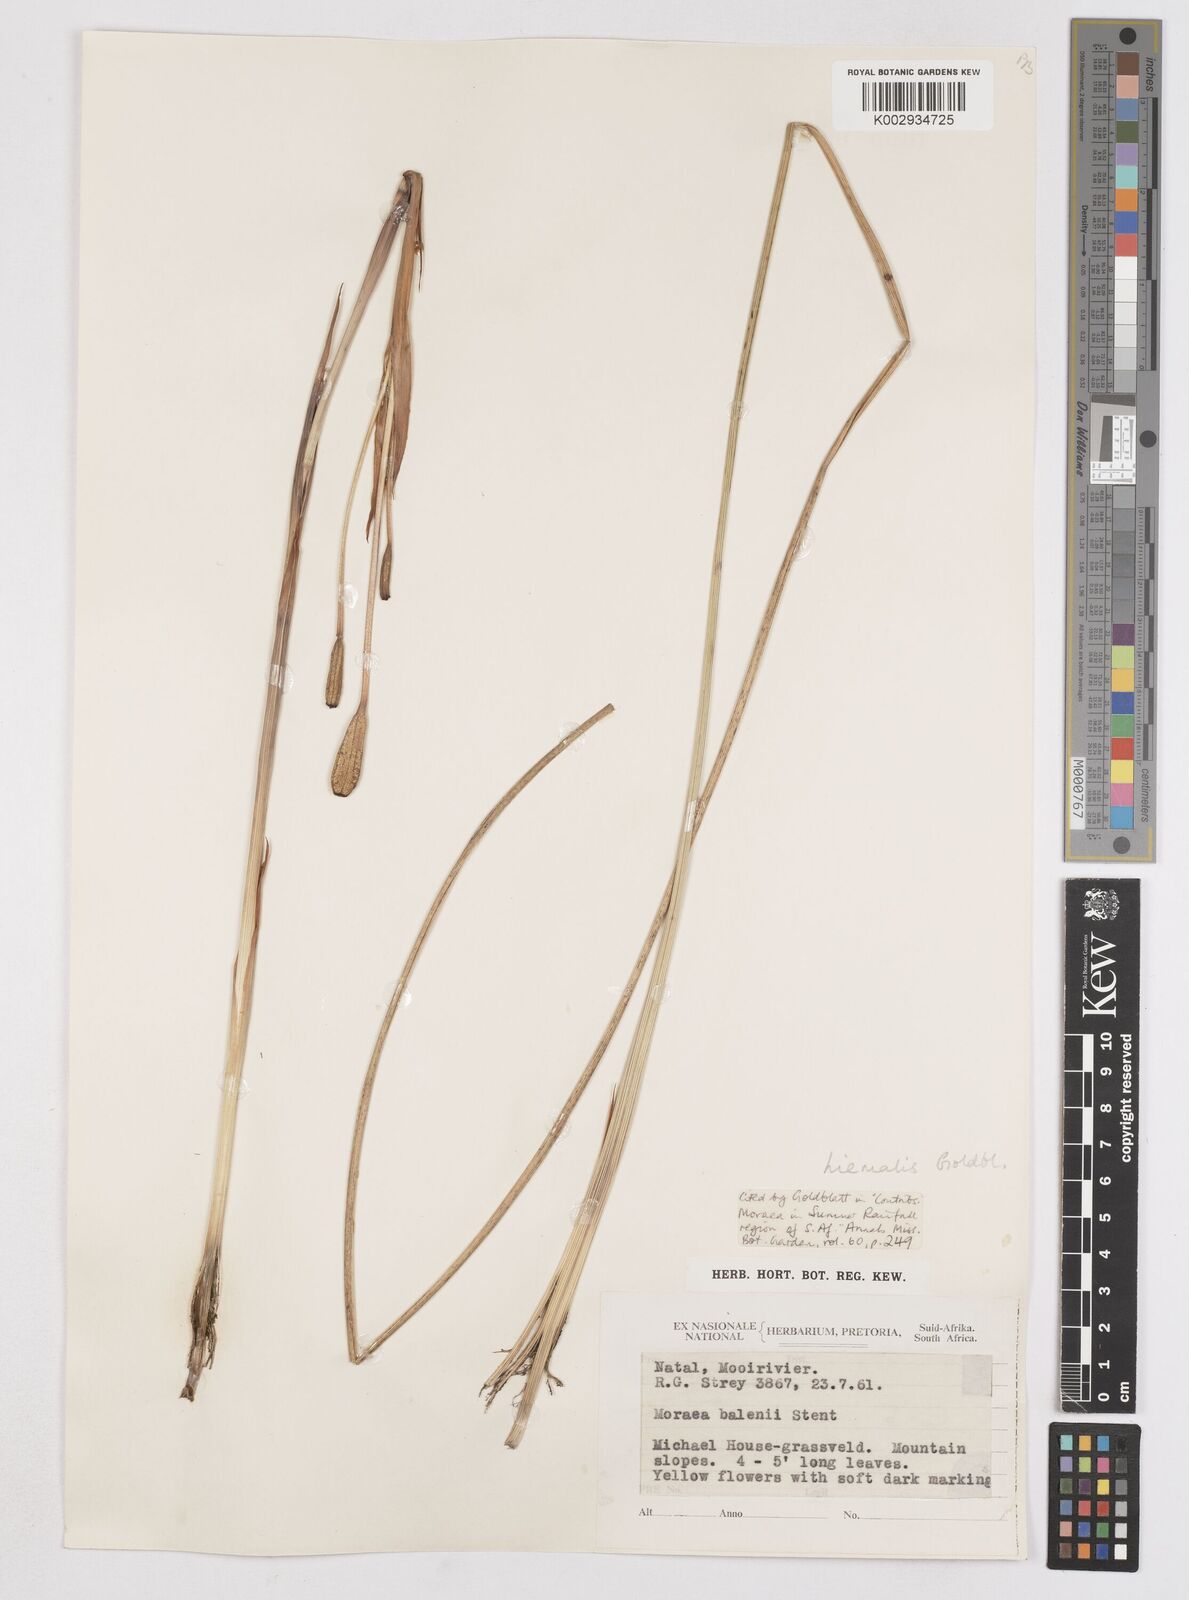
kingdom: Plantae
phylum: Tracheophyta
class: Liliopsida
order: Asparagales
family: Iridaceae
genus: Moraea
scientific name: Moraea hiemalis
